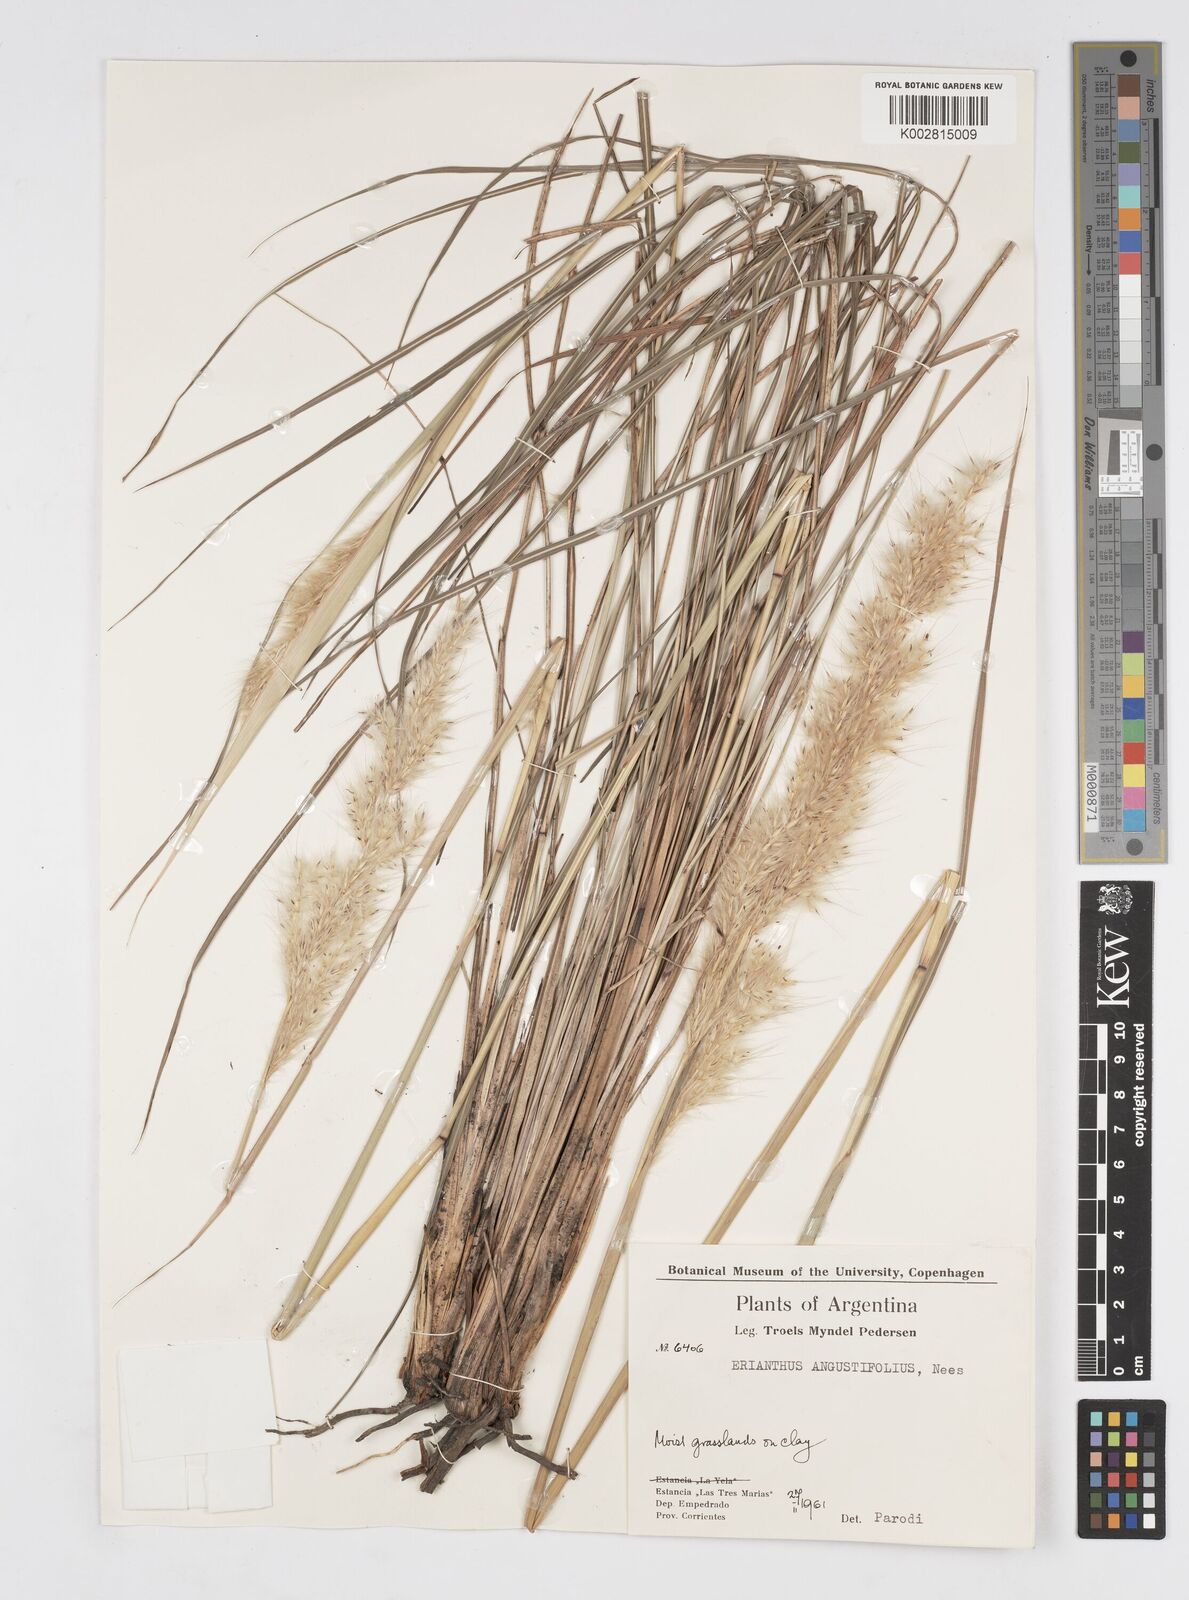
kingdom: Plantae
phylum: Tracheophyta
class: Liliopsida
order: Poales
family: Poaceae
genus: Saccharum
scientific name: Saccharum angustifolium
